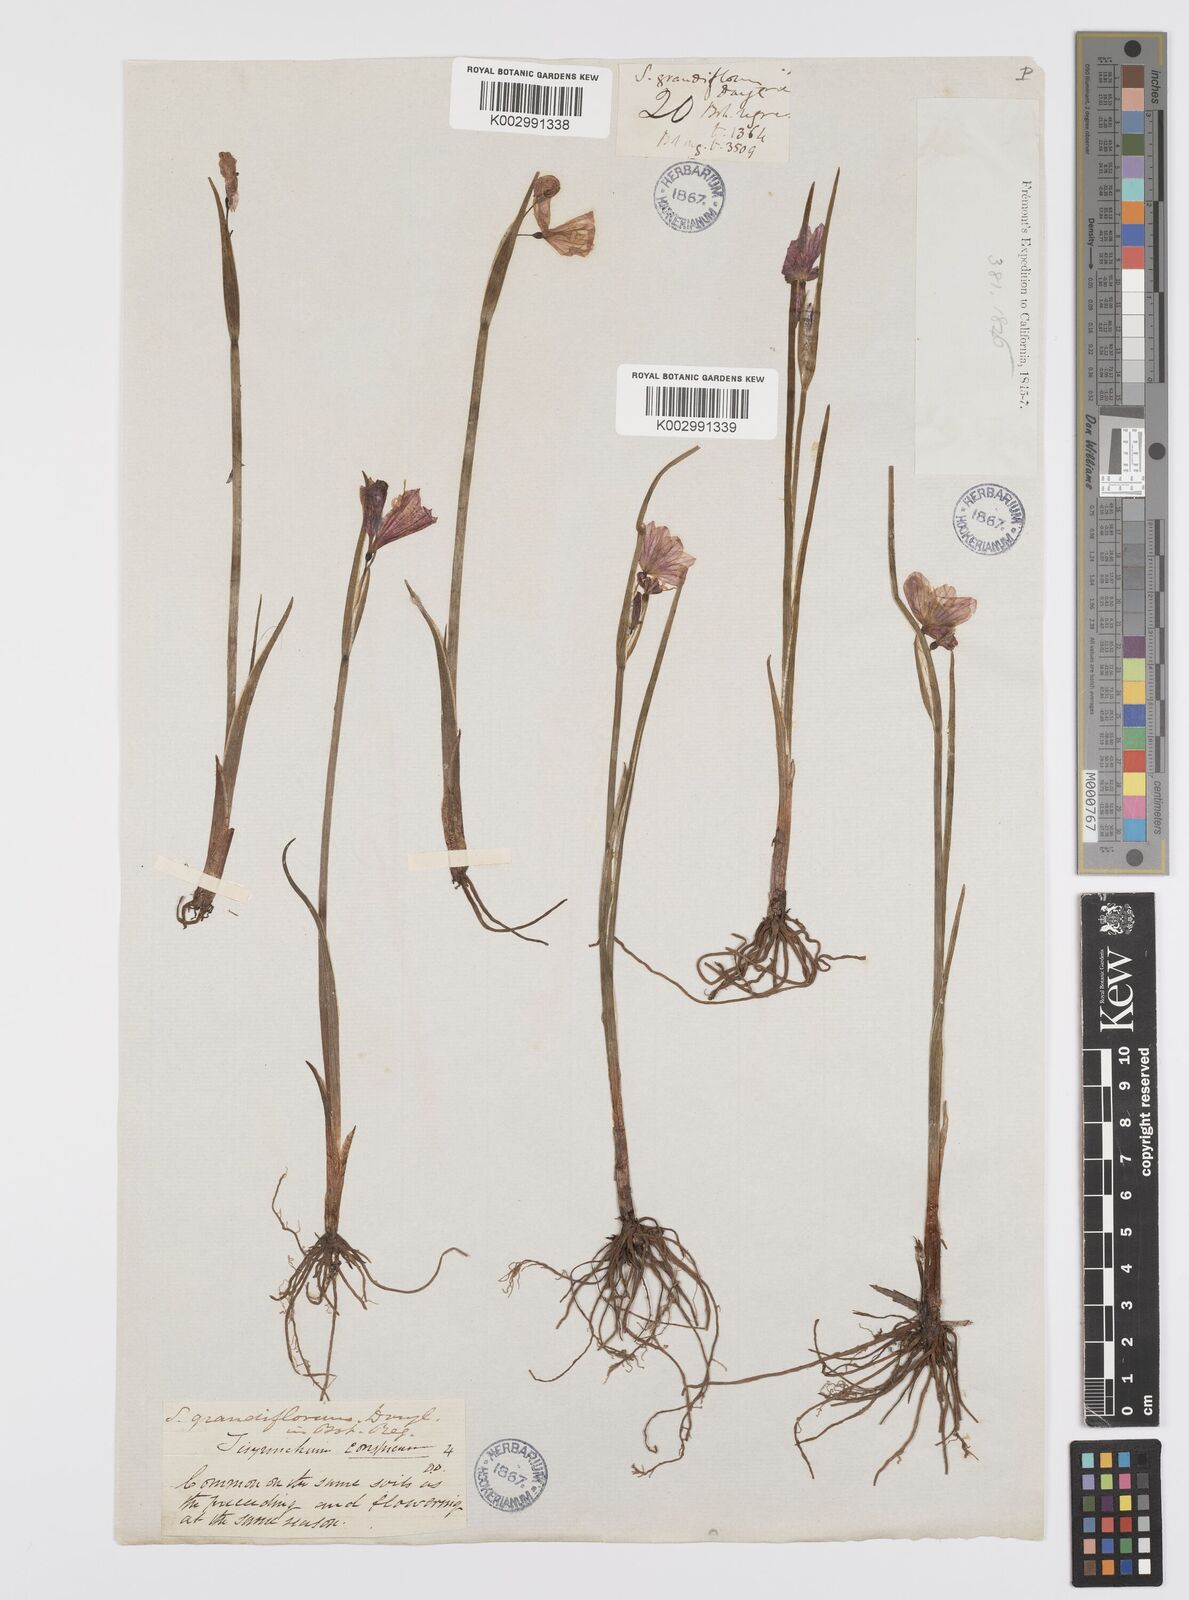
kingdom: Plantae
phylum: Tracheophyta
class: Liliopsida
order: Asparagales
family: Iridaceae
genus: Olsynium
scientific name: Olsynium douglasii
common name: Douglas' grasswidow
